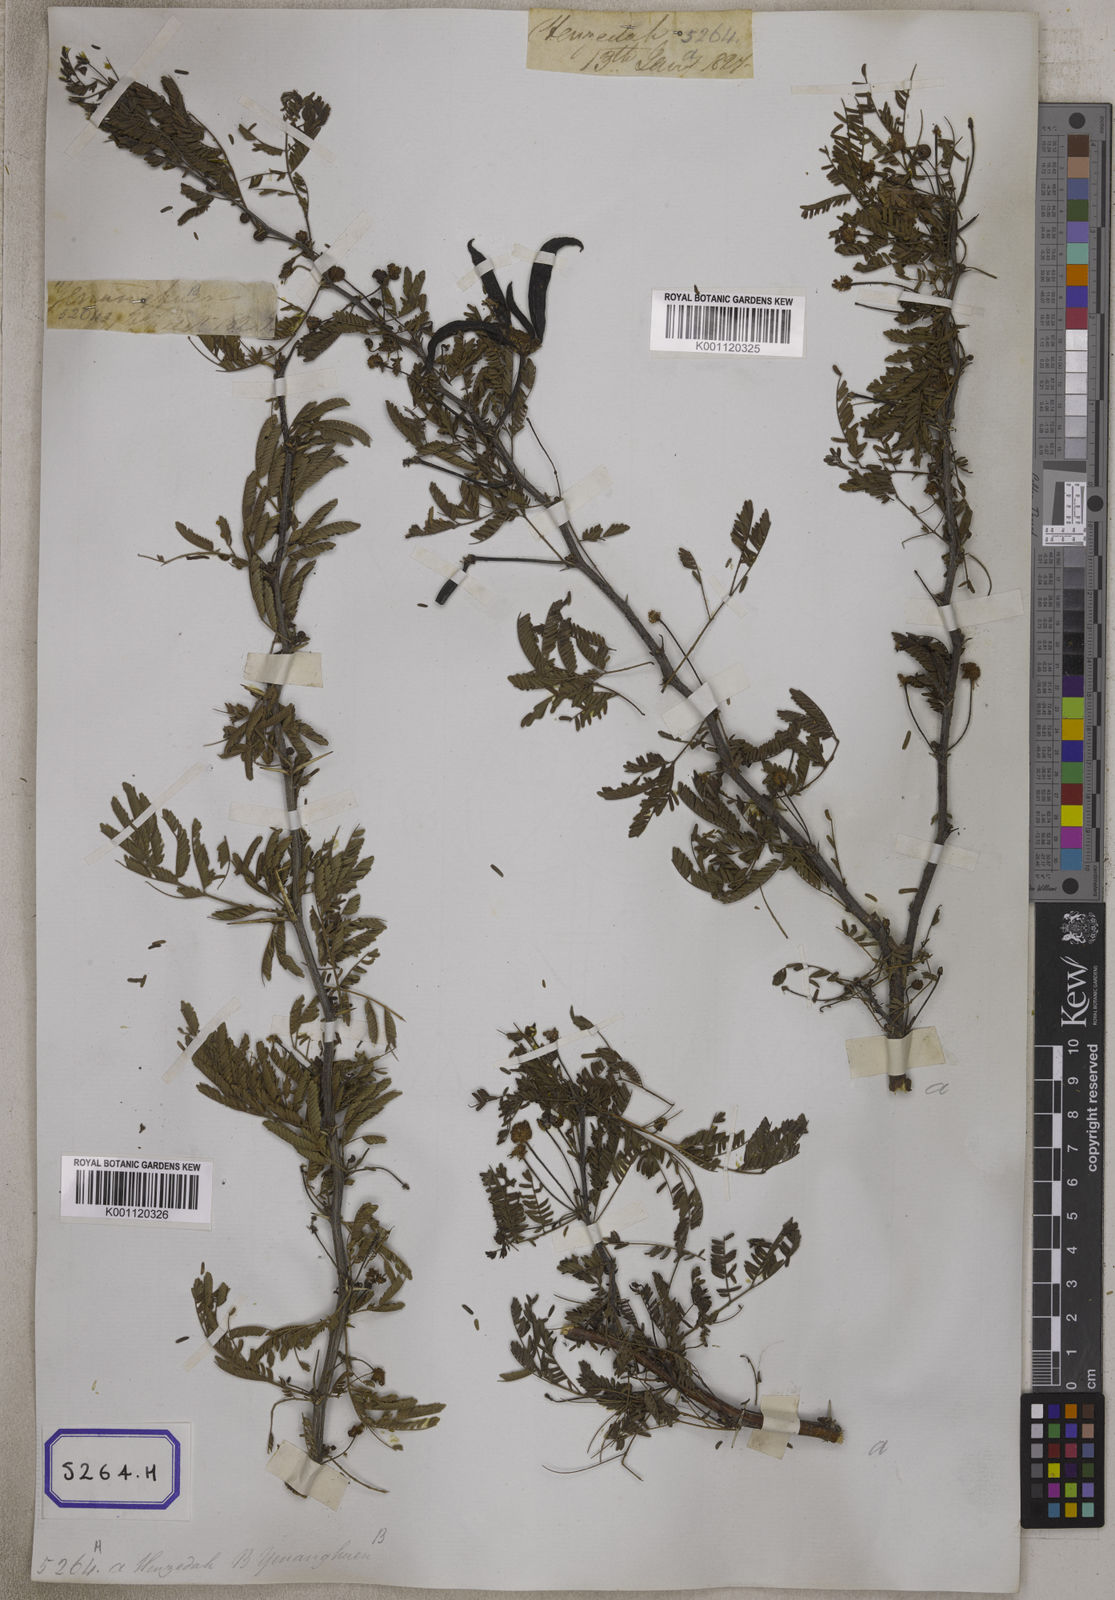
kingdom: Plantae
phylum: Tracheophyta
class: Magnoliopsida
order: Fabales
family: Fabaceae
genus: Vachellia
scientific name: Vachellia farnesiana
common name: Sweet acacia
